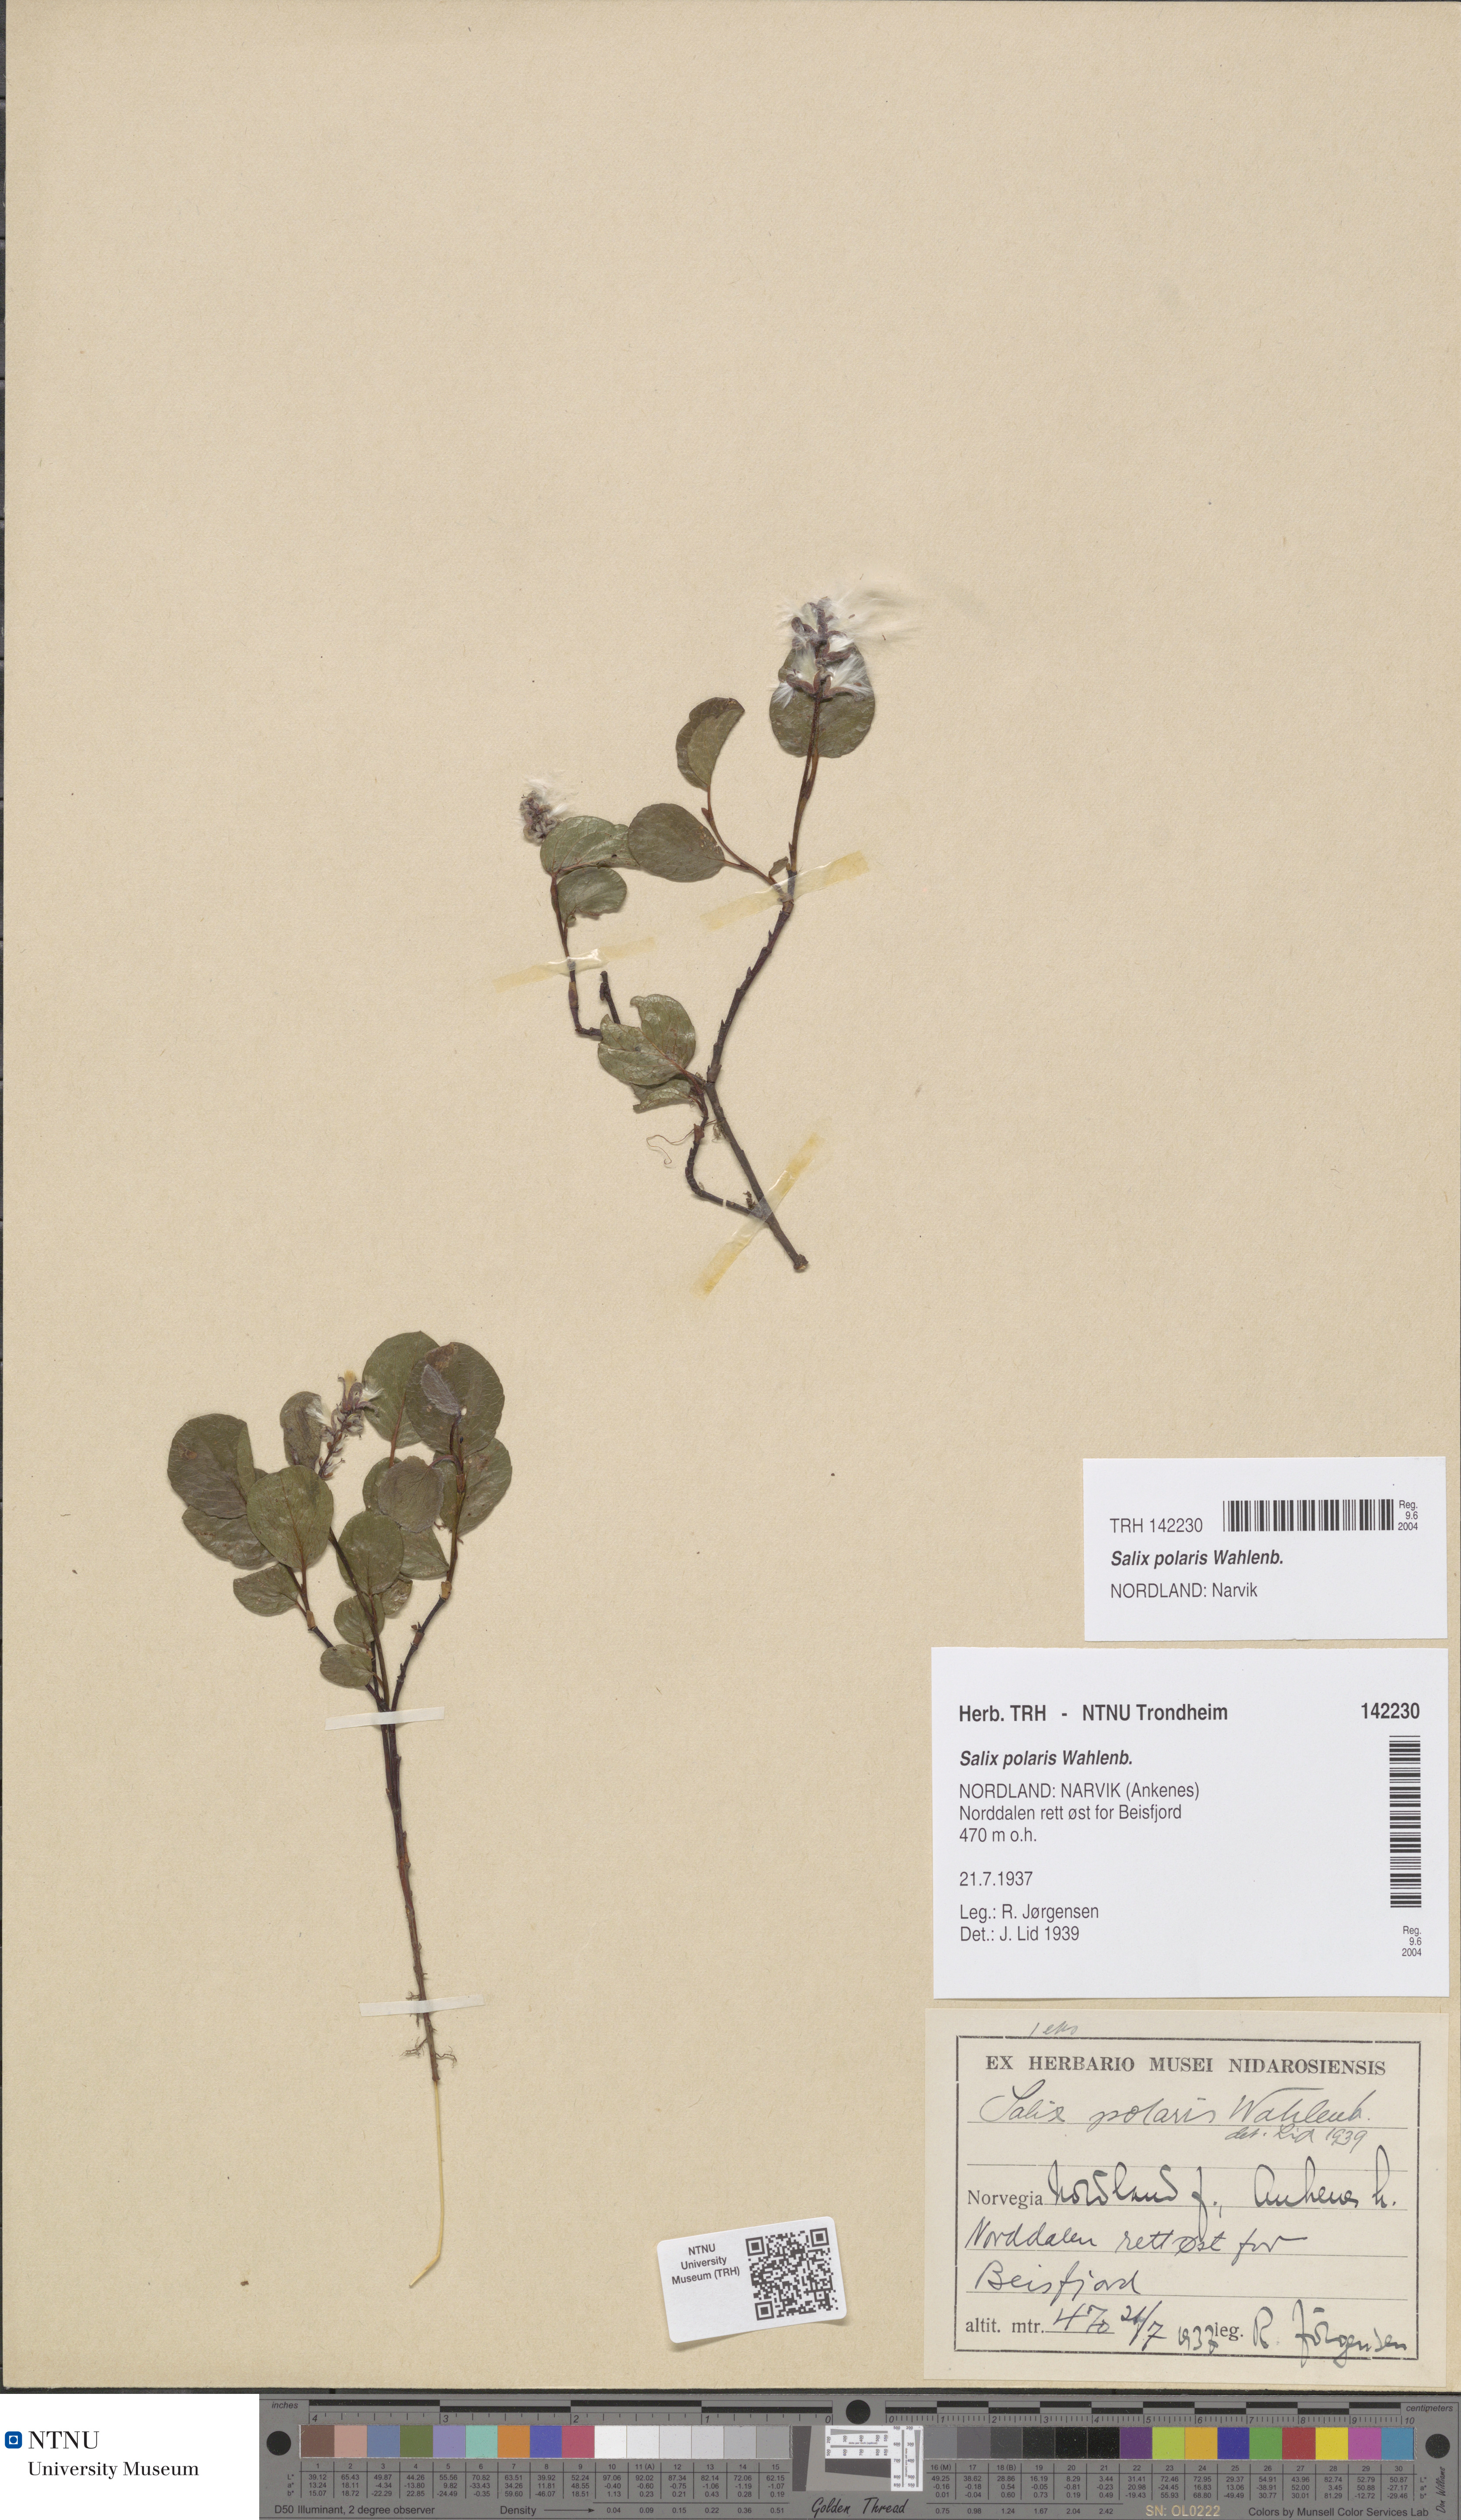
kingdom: Plantae
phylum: Tracheophyta
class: Magnoliopsida
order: Malpighiales
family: Salicaceae
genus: Salix
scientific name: Salix polaris
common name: Polar willow
